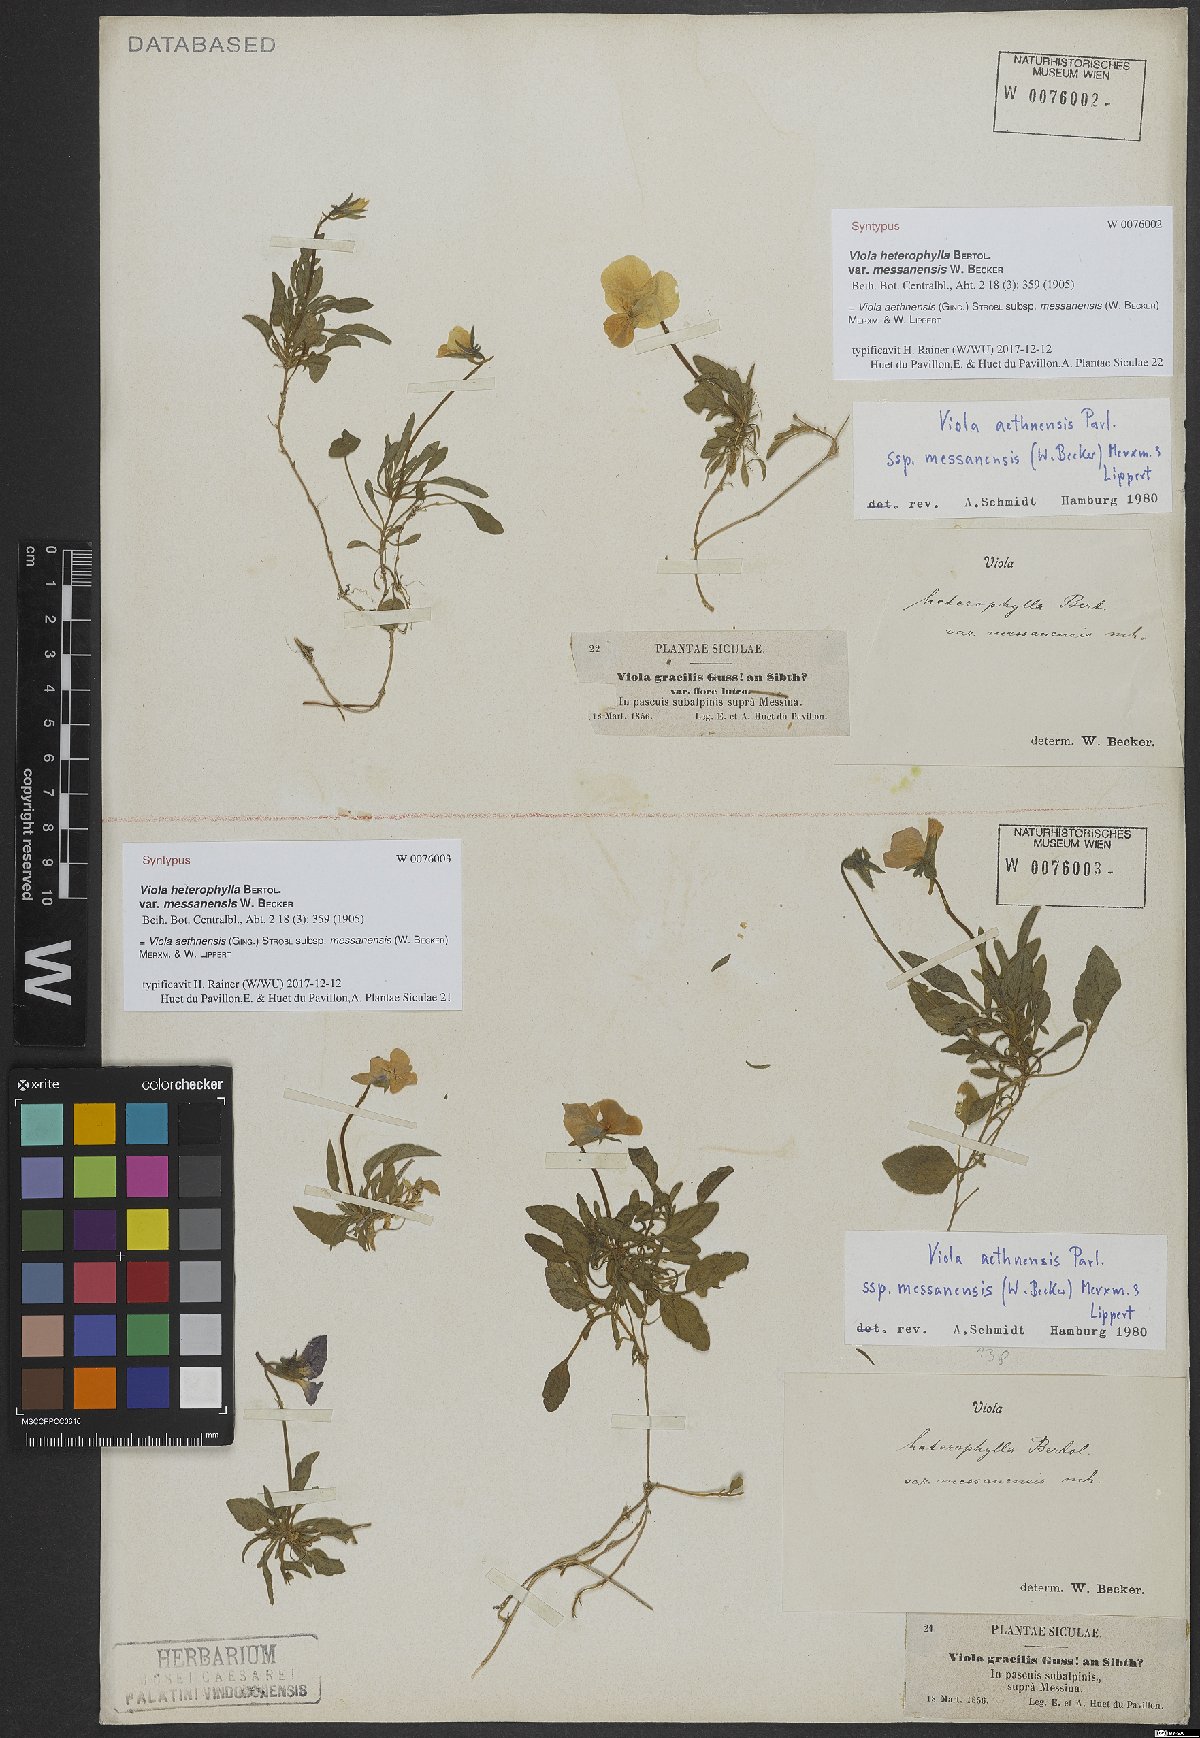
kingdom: Plantae
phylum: Tracheophyta
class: Magnoliopsida
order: Malpighiales
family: Violaceae
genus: Viola
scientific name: Viola aethnensis
